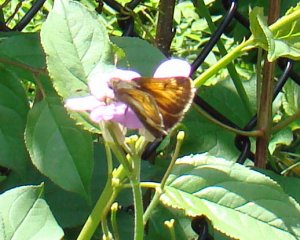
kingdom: Animalia
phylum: Arthropoda
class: Insecta
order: Lepidoptera
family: Hesperiidae
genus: Lon
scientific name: Lon hobomok
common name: Hobomok Skipper
